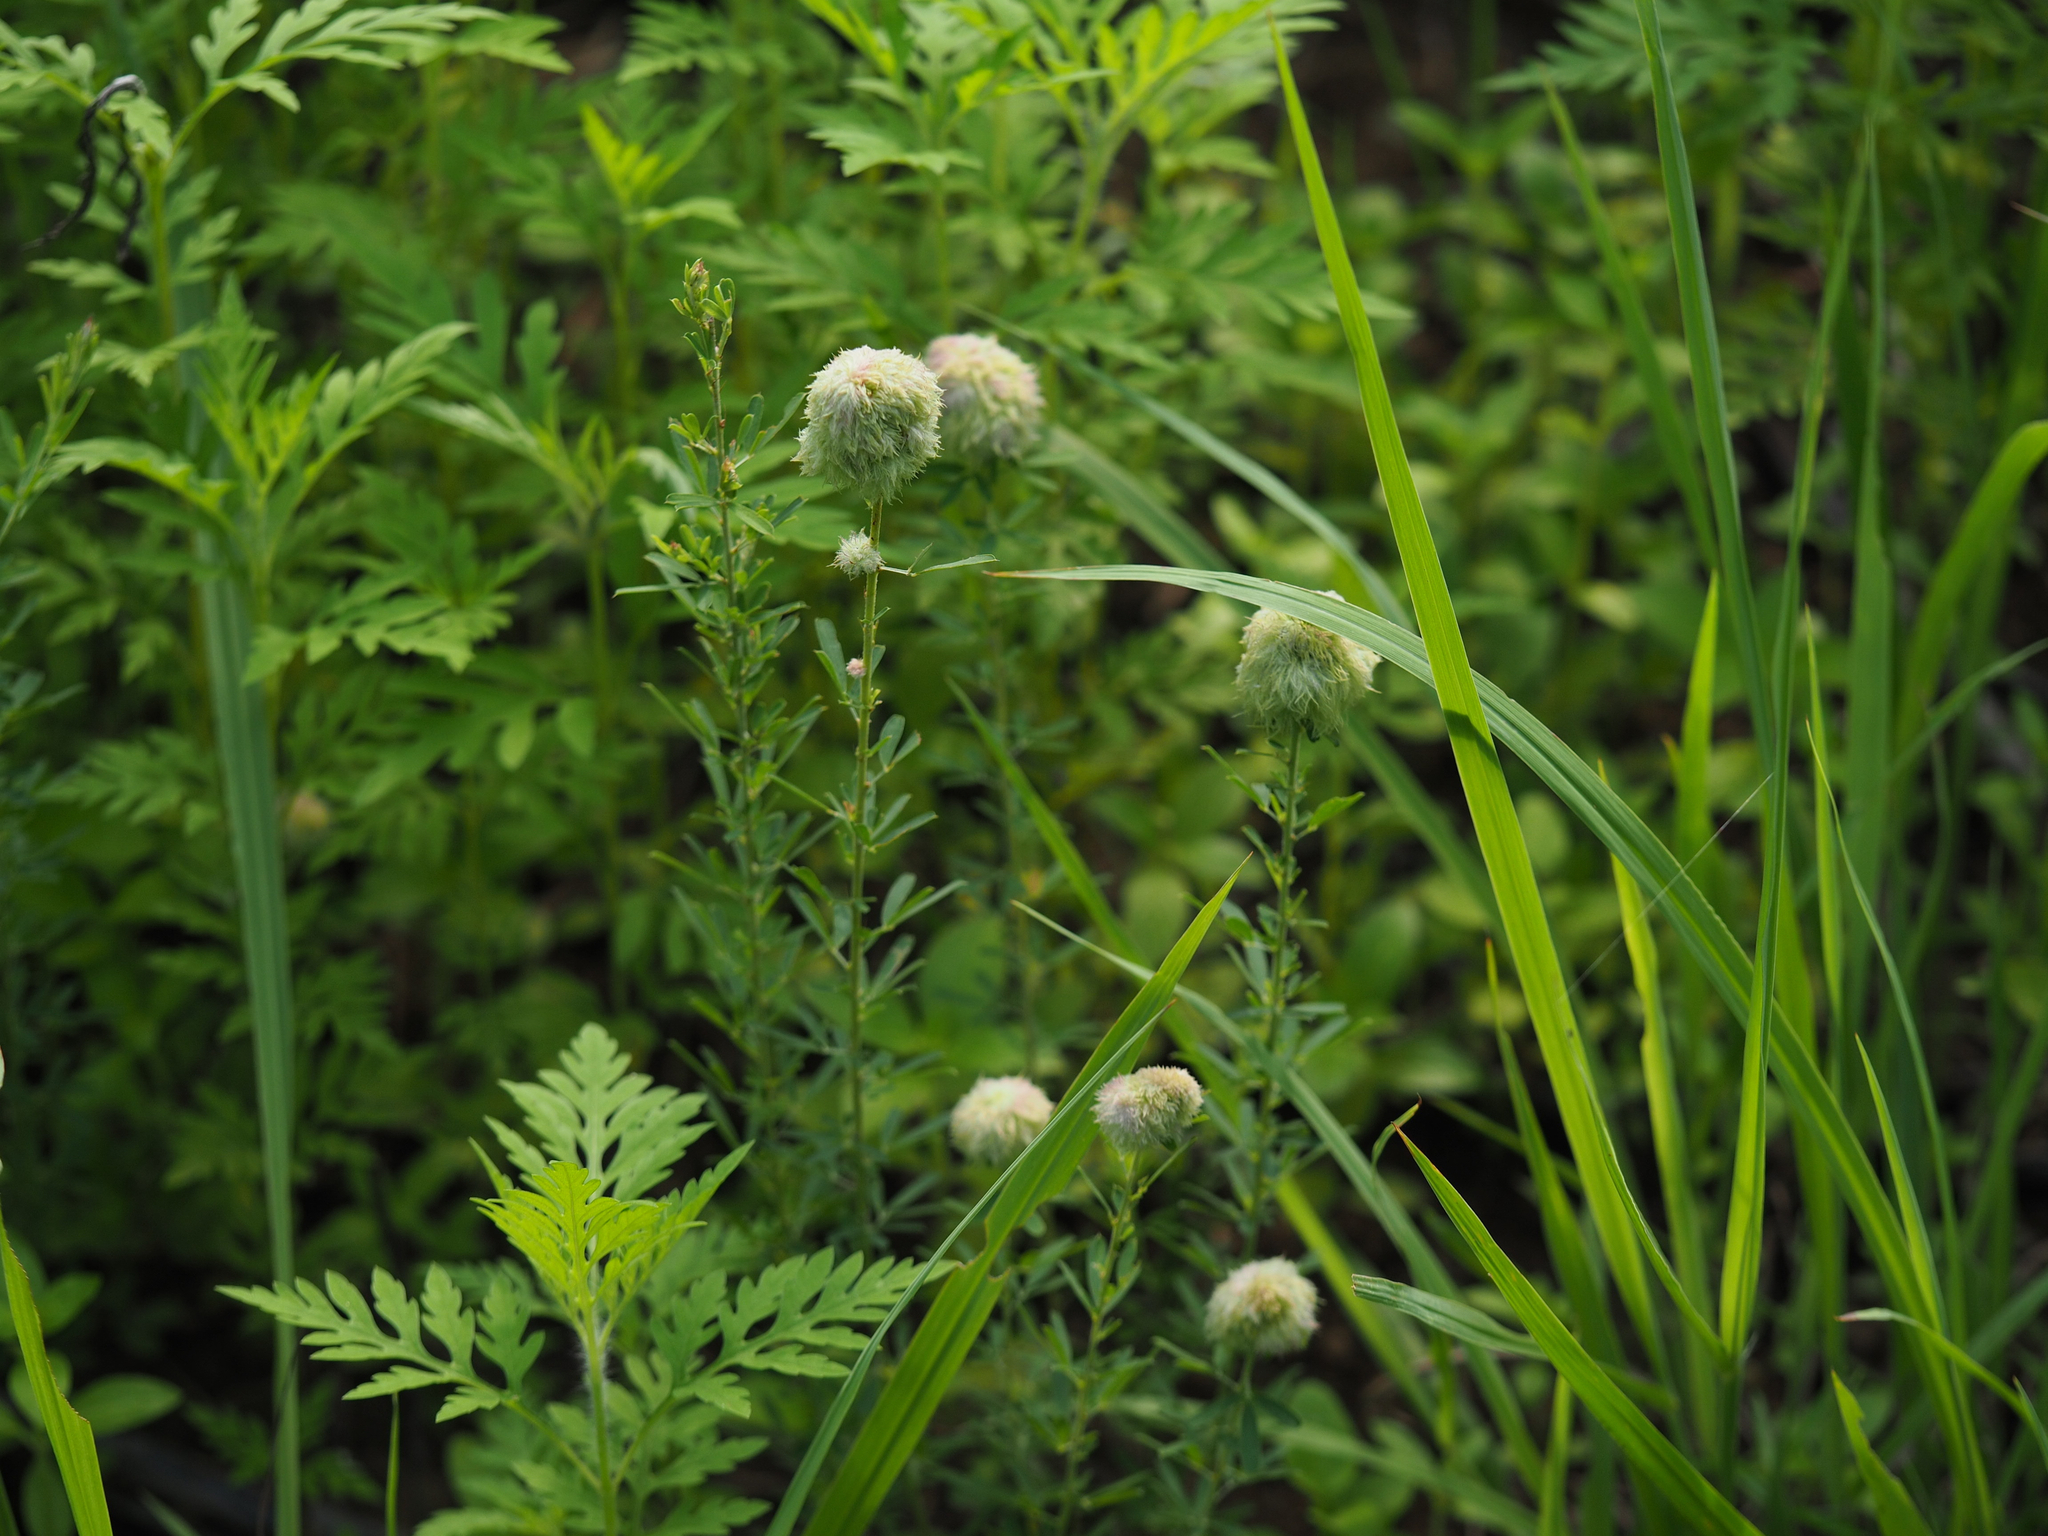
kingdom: Plantae
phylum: Tracheophyta
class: Magnoliopsida
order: Fabales
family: Fabaceae
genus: Lespedeza
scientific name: Lespedeza cuneata
